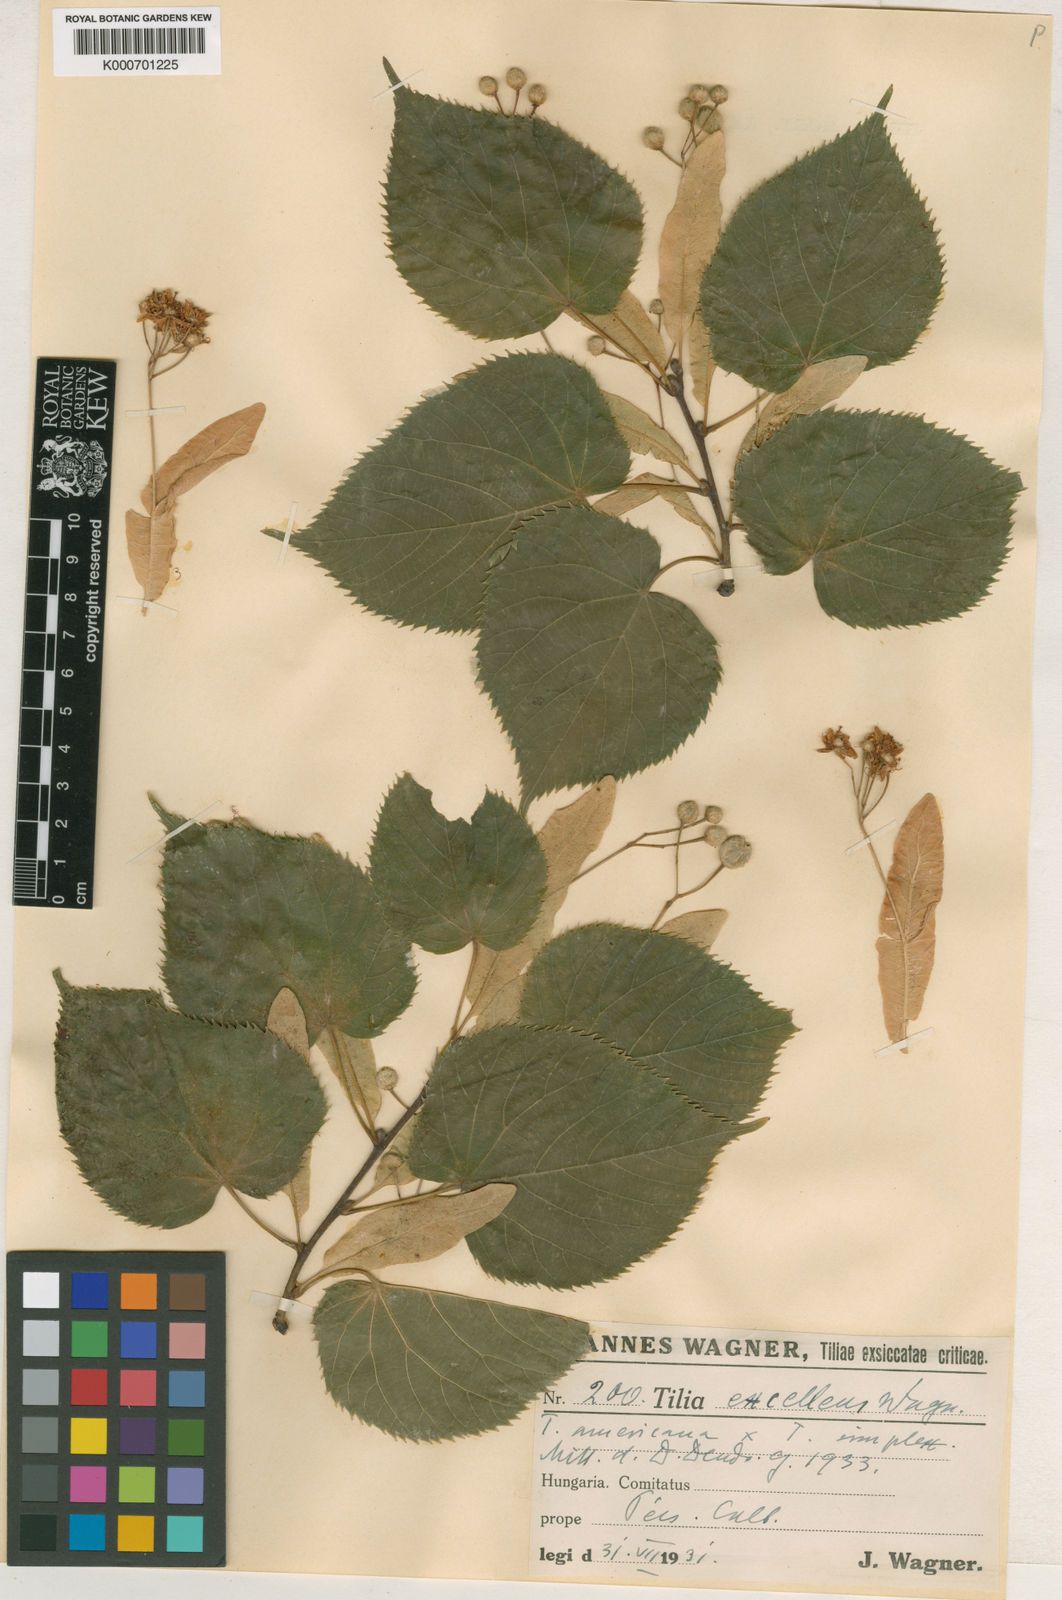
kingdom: Plantae
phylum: Tracheophyta
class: Magnoliopsida
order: Malvales
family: Malvaceae
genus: Tilia
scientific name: Tilia americana
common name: Basswood
